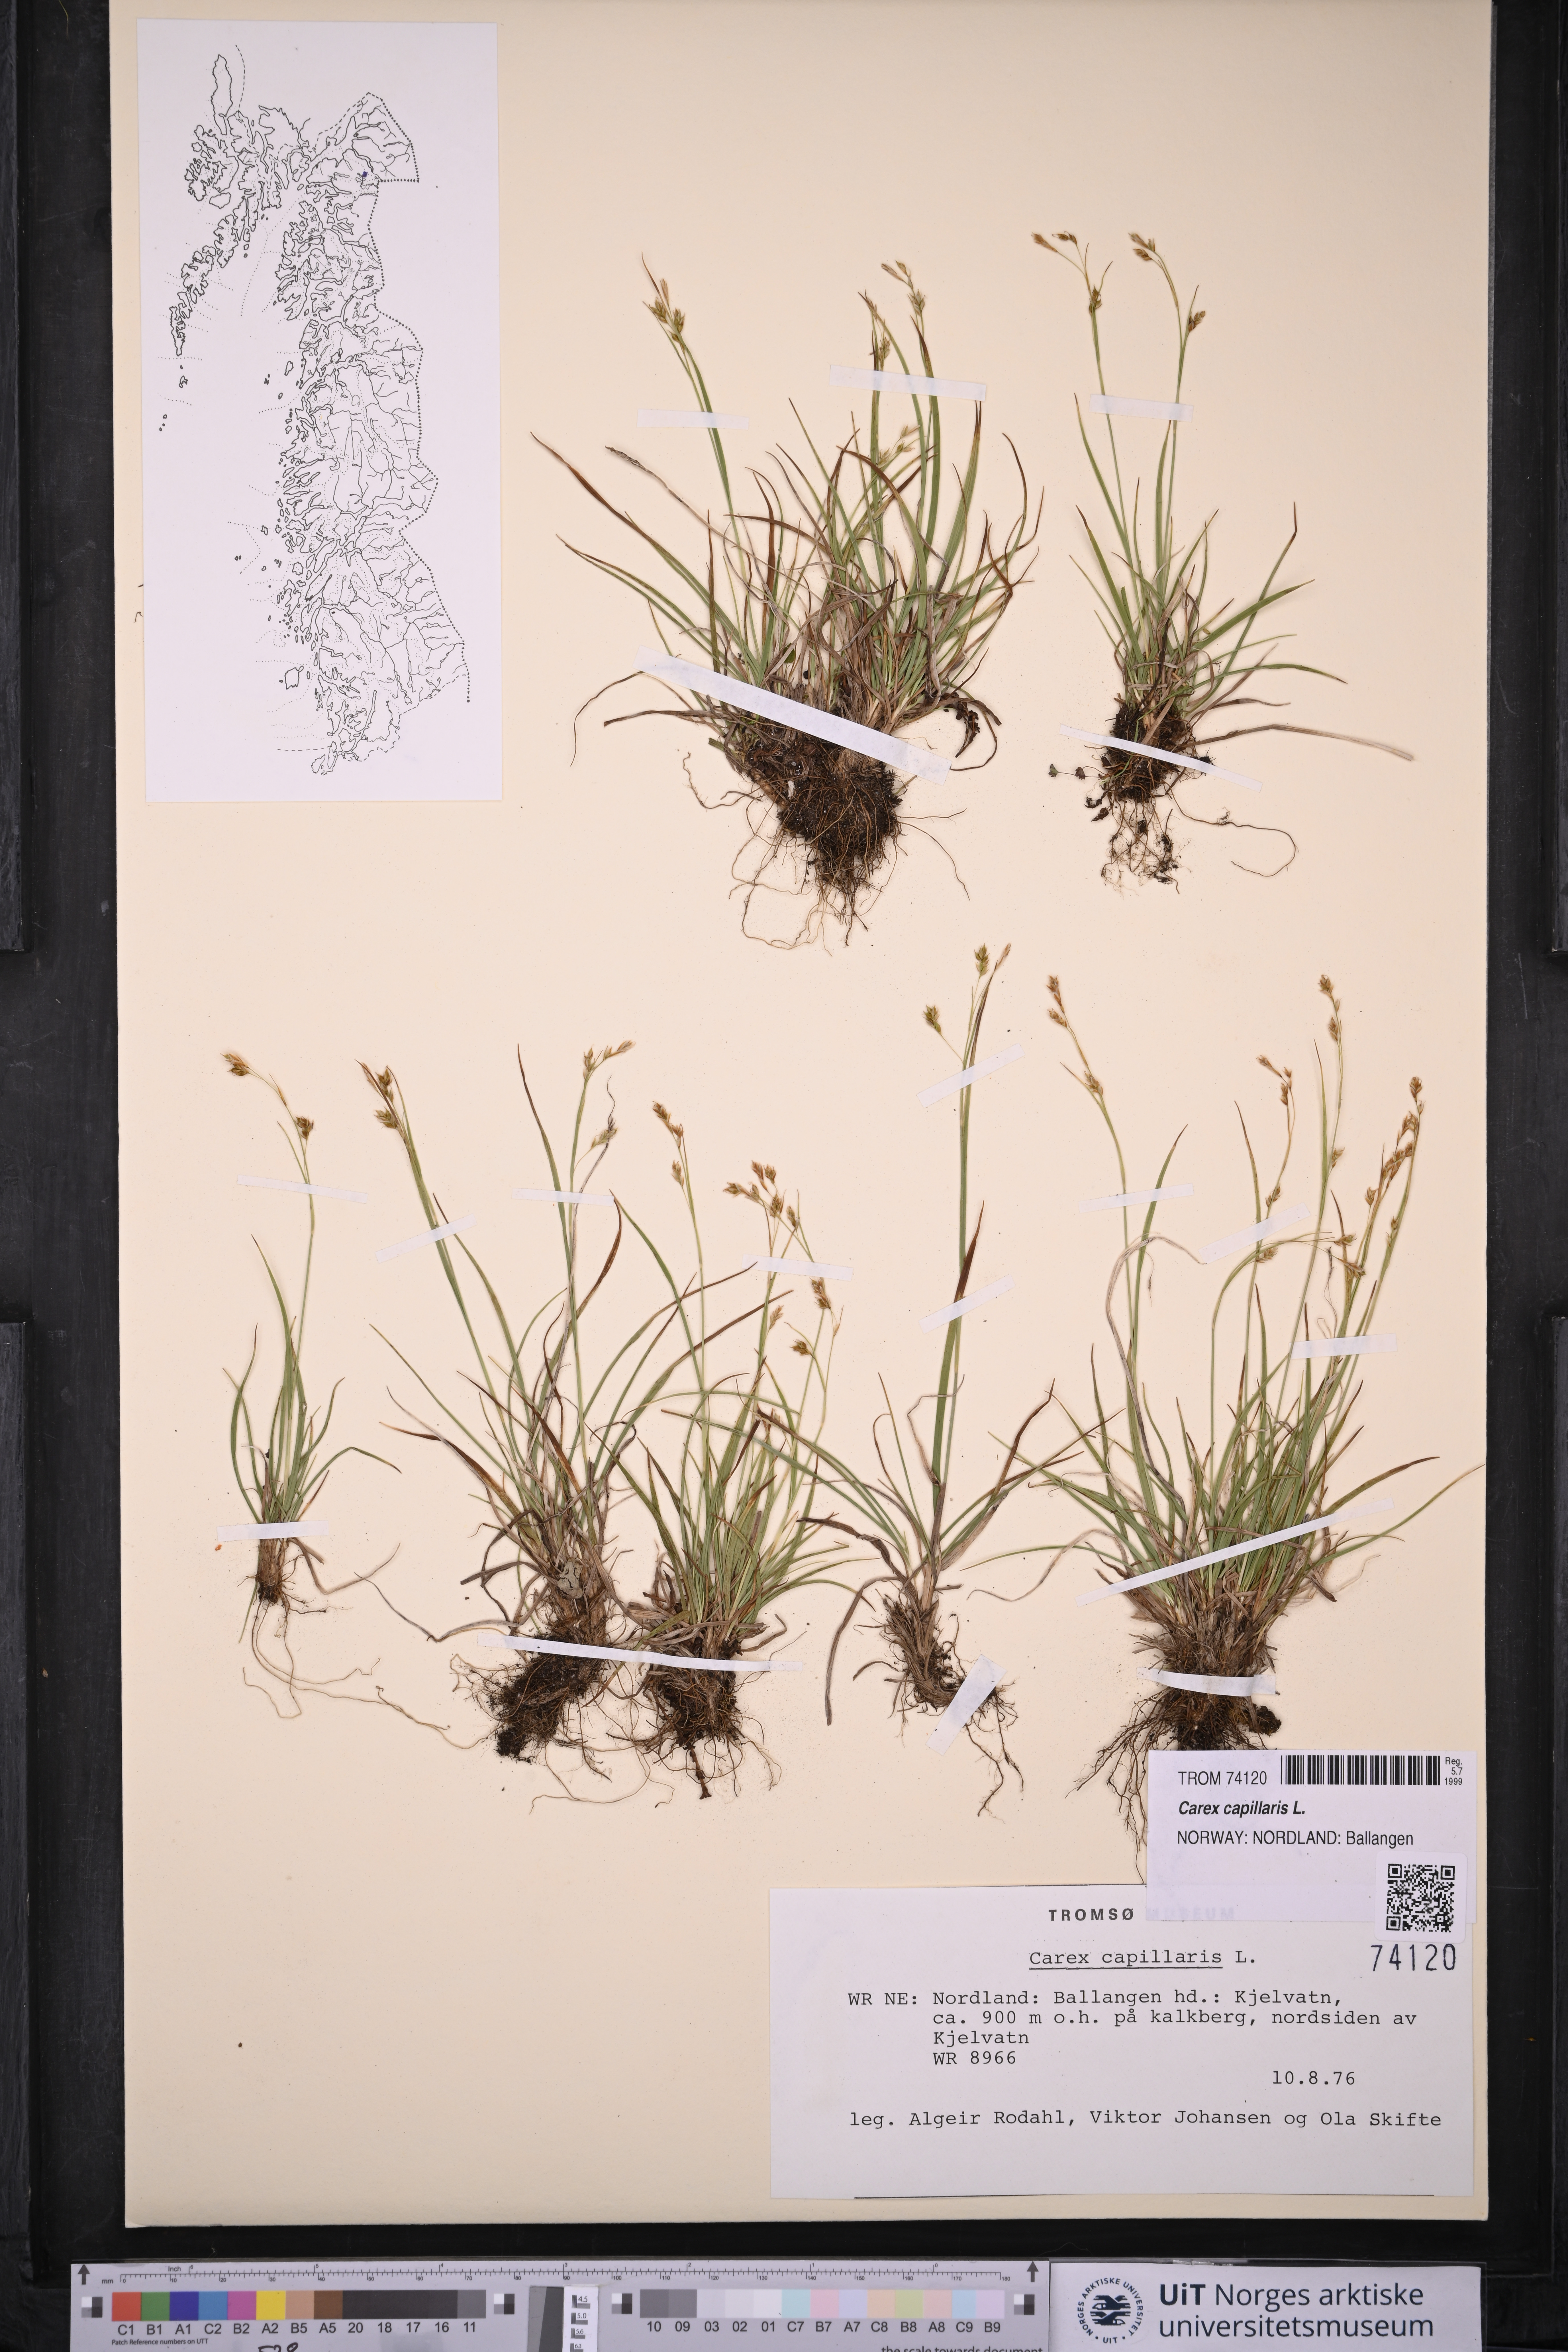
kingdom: Plantae
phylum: Tracheophyta
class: Liliopsida
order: Poales
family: Cyperaceae
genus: Carex
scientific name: Carex capillaris
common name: Hair sedge
